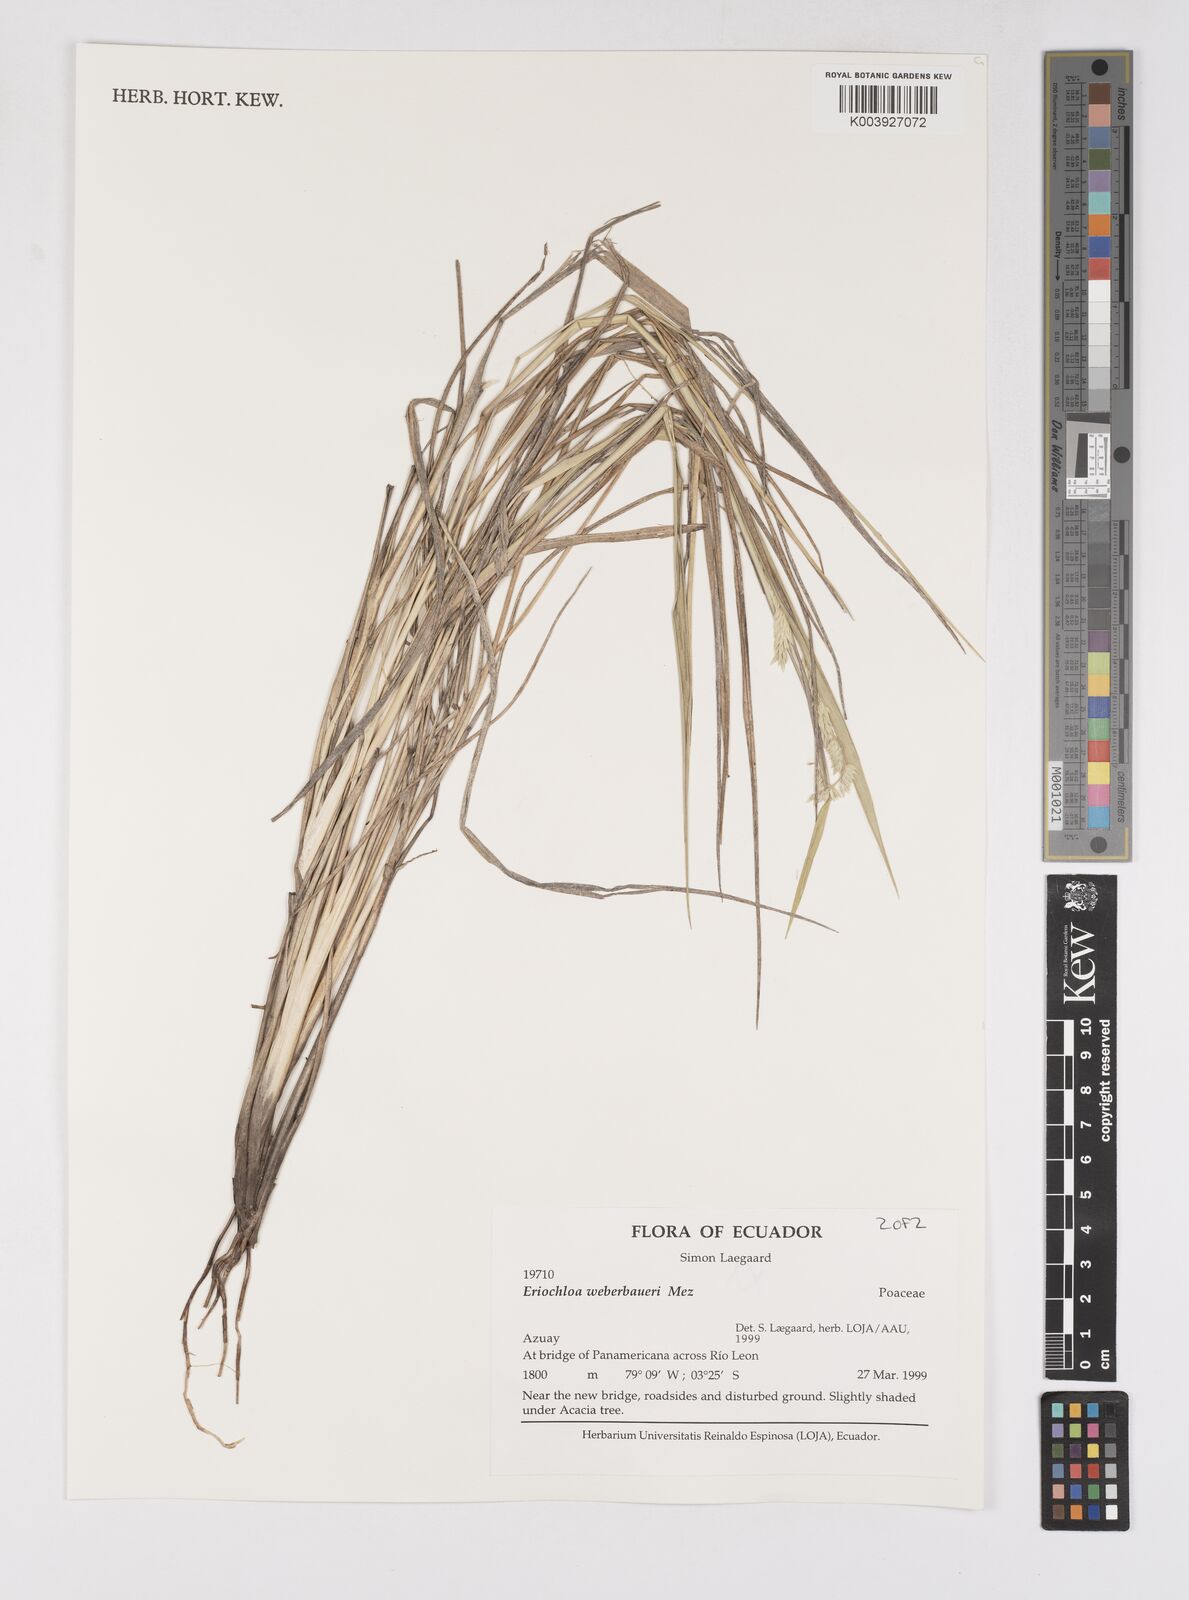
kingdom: Plantae
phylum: Tracheophyta
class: Liliopsida
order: Poales
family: Poaceae
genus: Eriochloa
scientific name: Eriochloa weberbaueri
